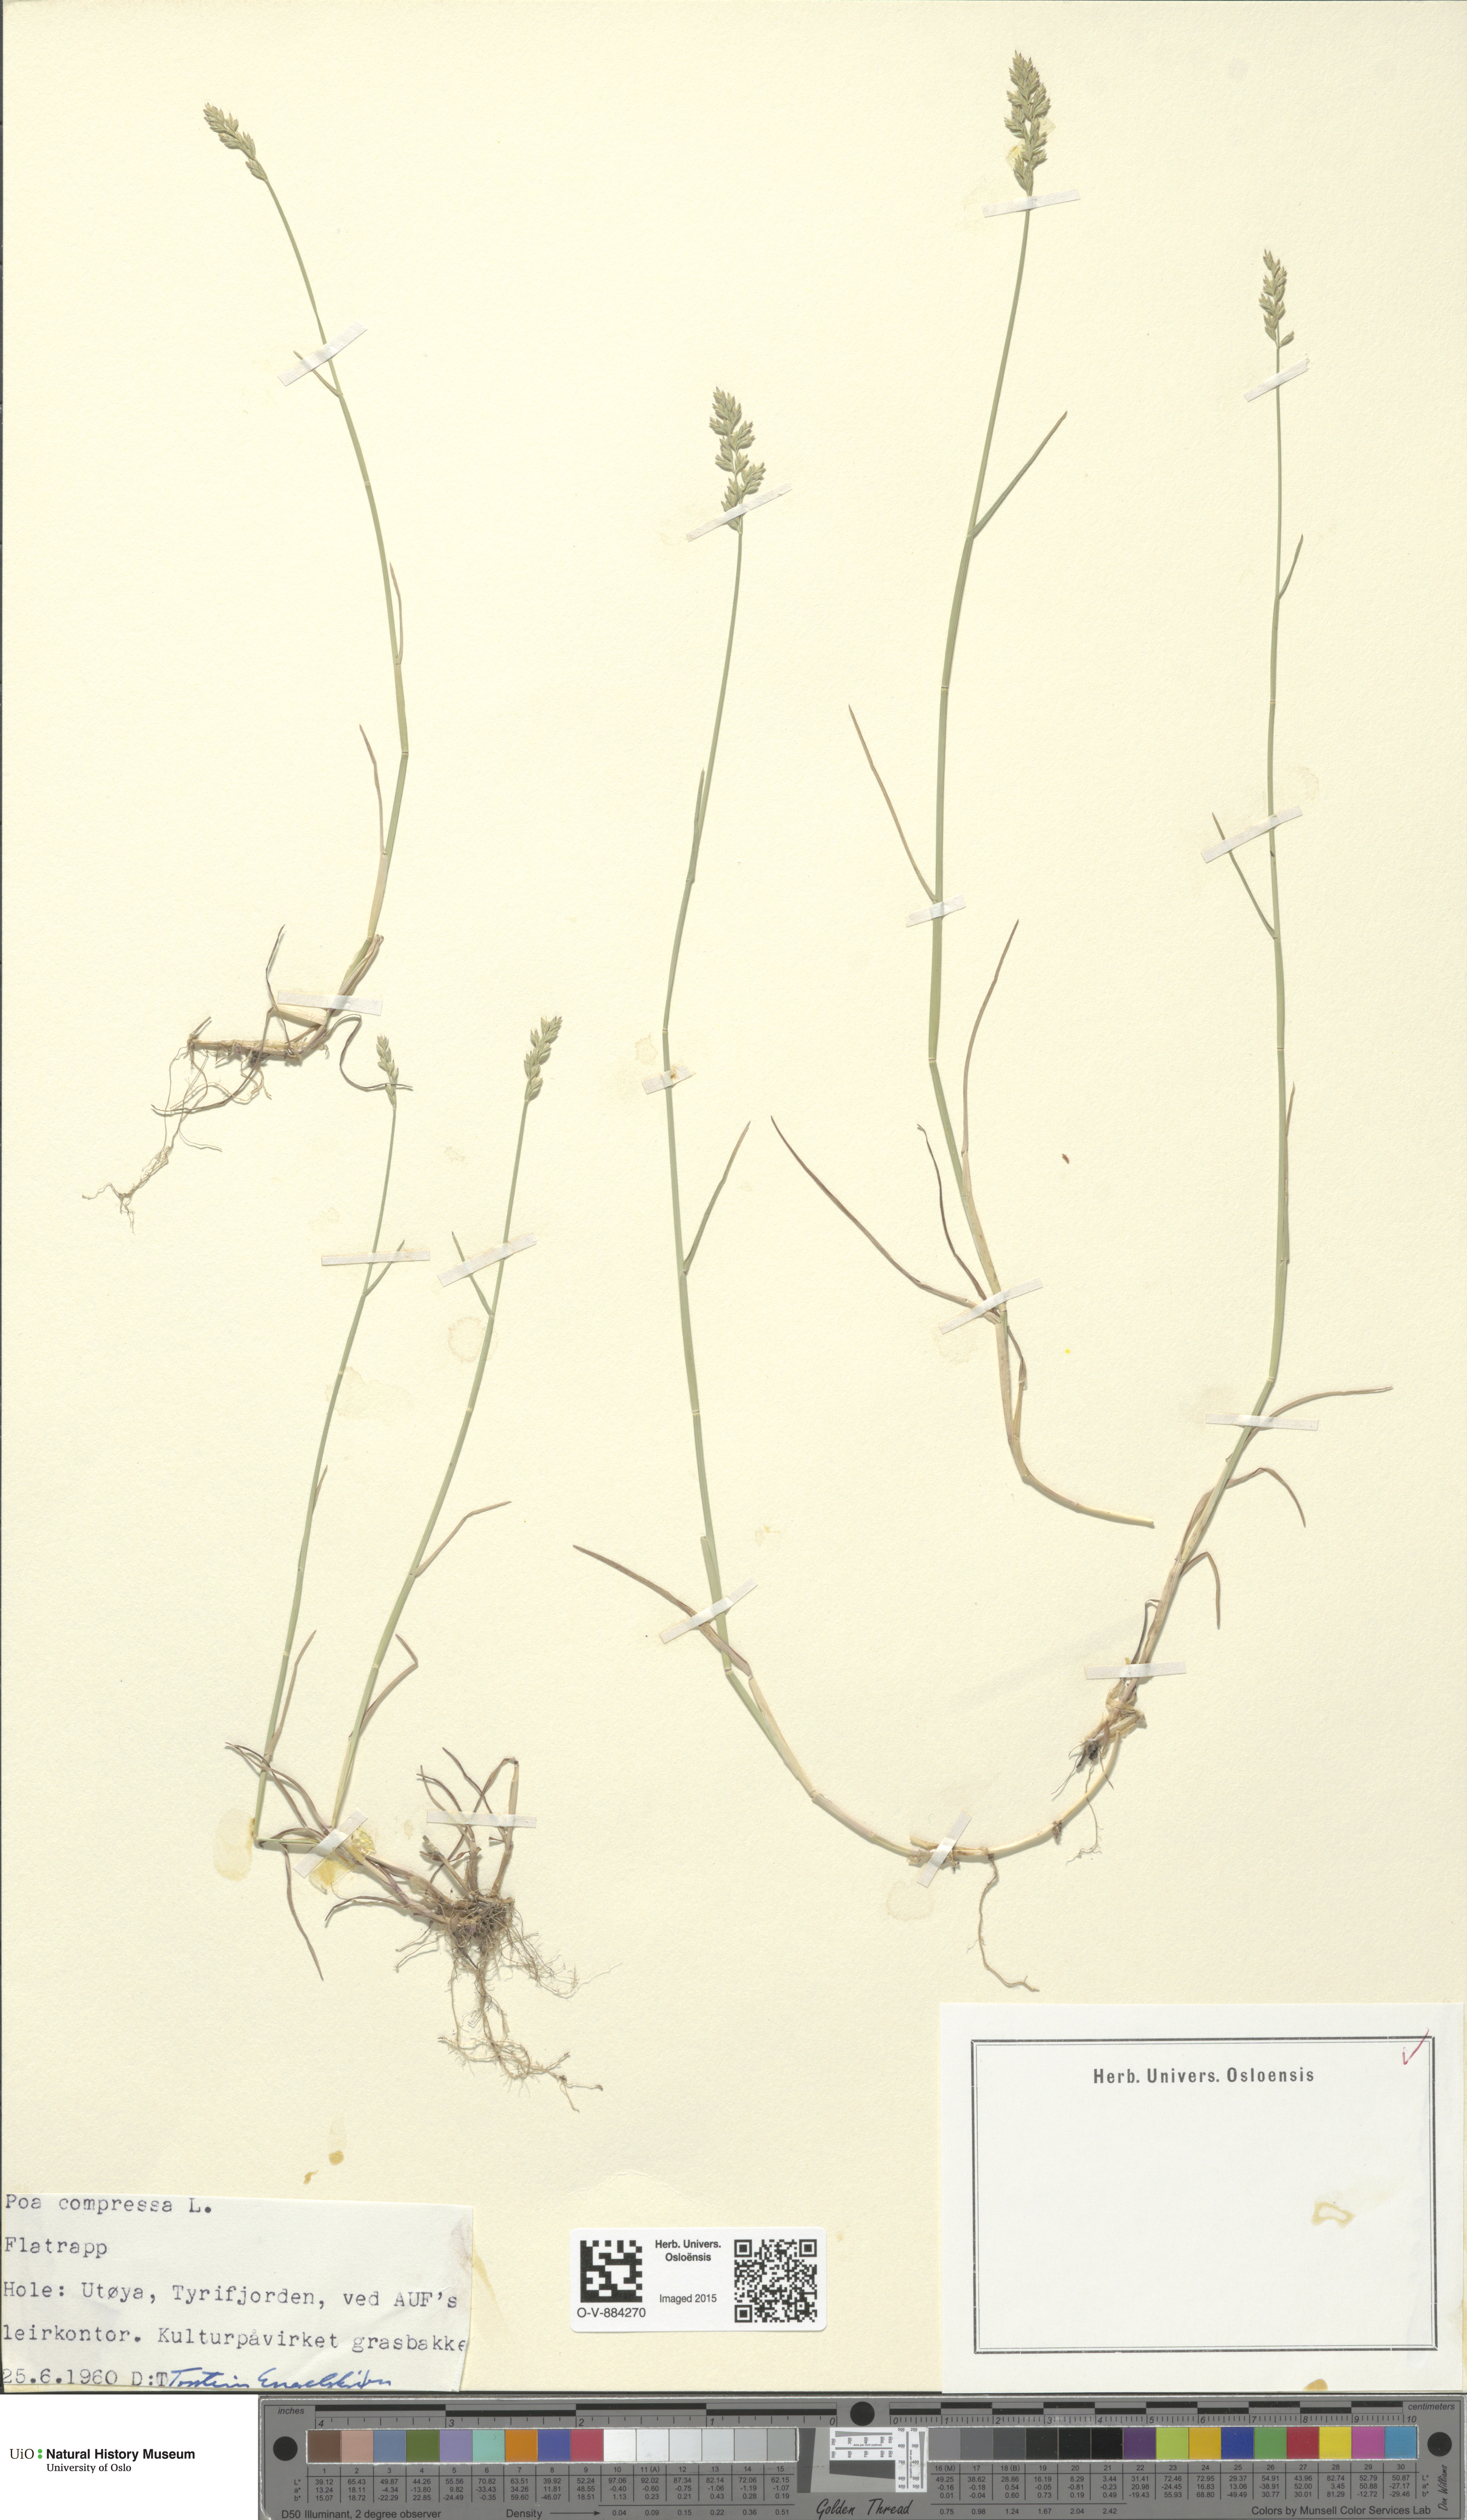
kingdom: Plantae
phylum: Tracheophyta
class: Liliopsida
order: Poales
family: Poaceae
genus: Poa
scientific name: Poa compressa
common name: Canada bluegrass
